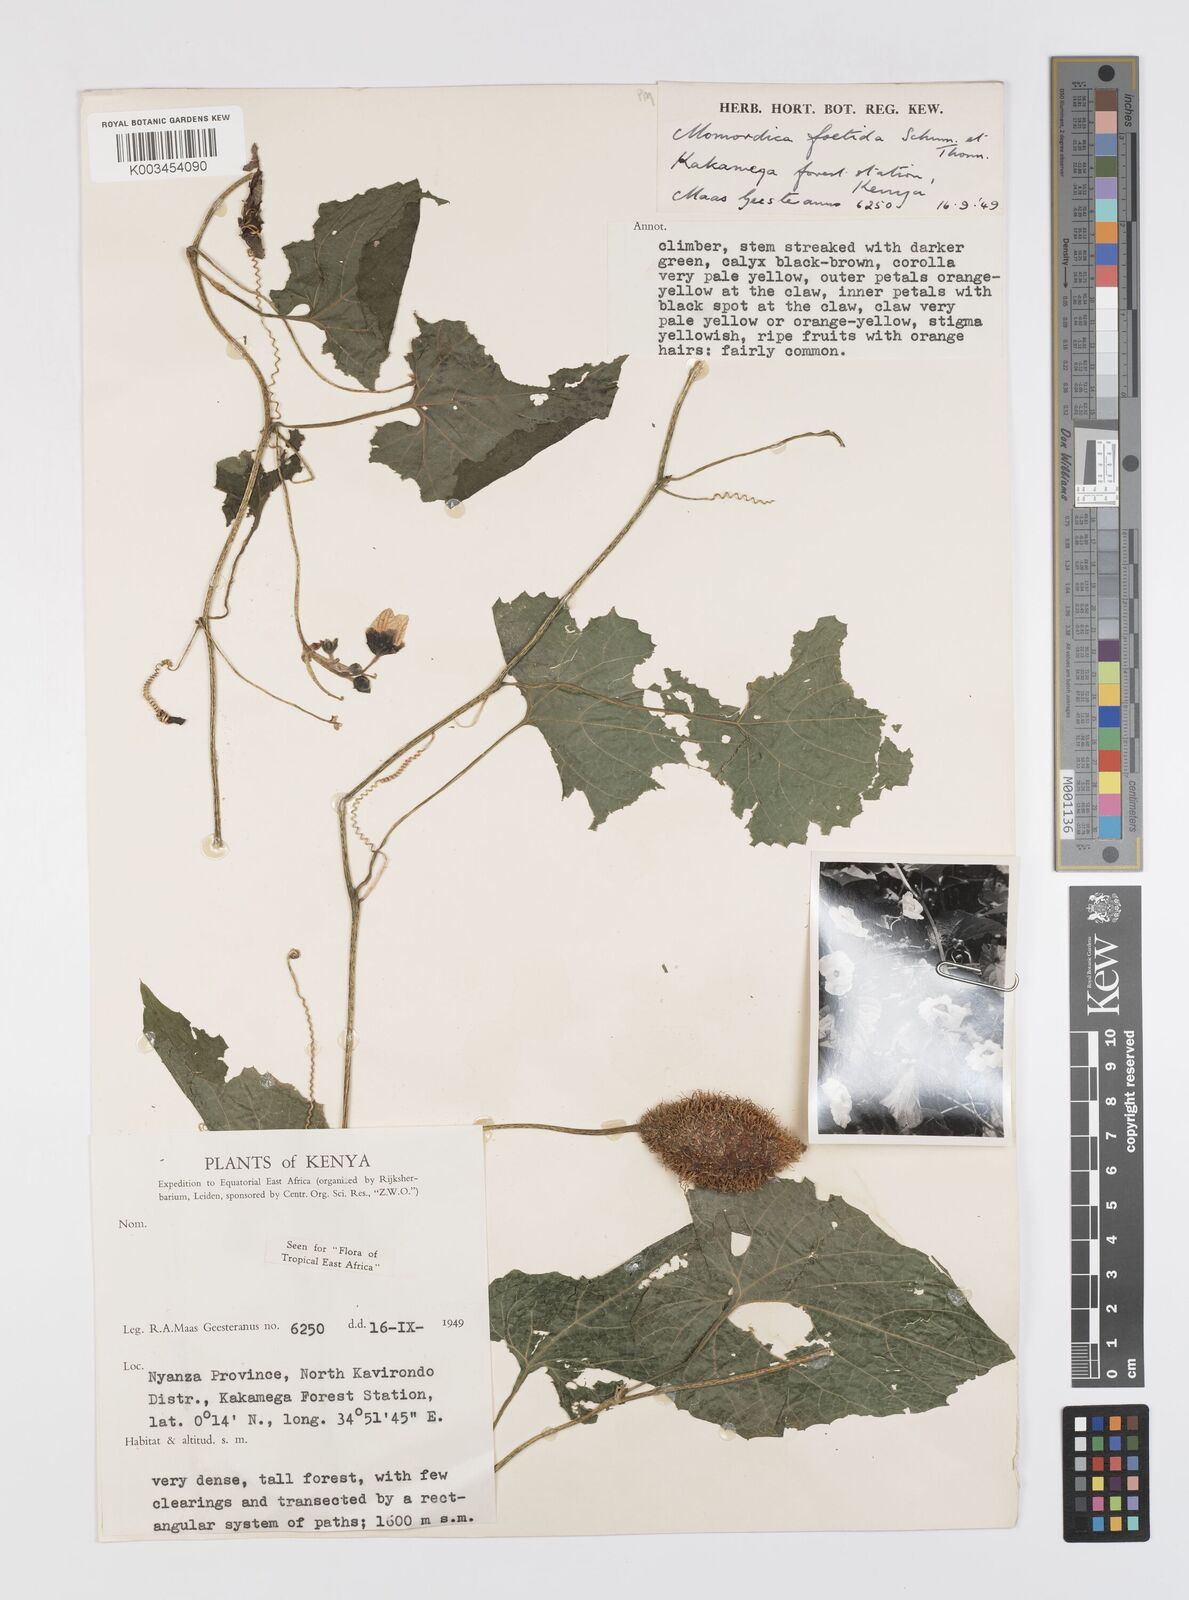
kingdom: Plantae
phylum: Tracheophyta
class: Magnoliopsida
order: Cucurbitales
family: Cucurbitaceae
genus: Momordica
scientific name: Momordica foetida
